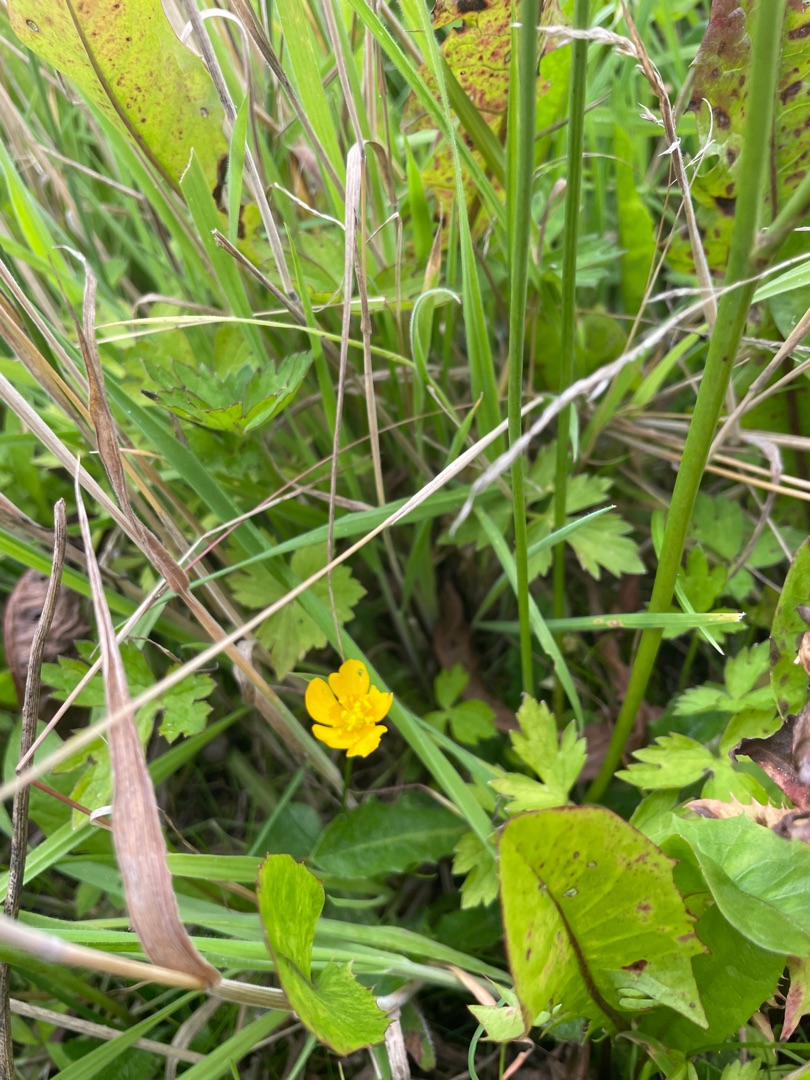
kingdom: Plantae
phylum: Tracheophyta
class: Magnoliopsida
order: Ranunculales
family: Ranunculaceae
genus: Ranunculus
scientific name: Ranunculus acris
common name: Bidende ranunkel
